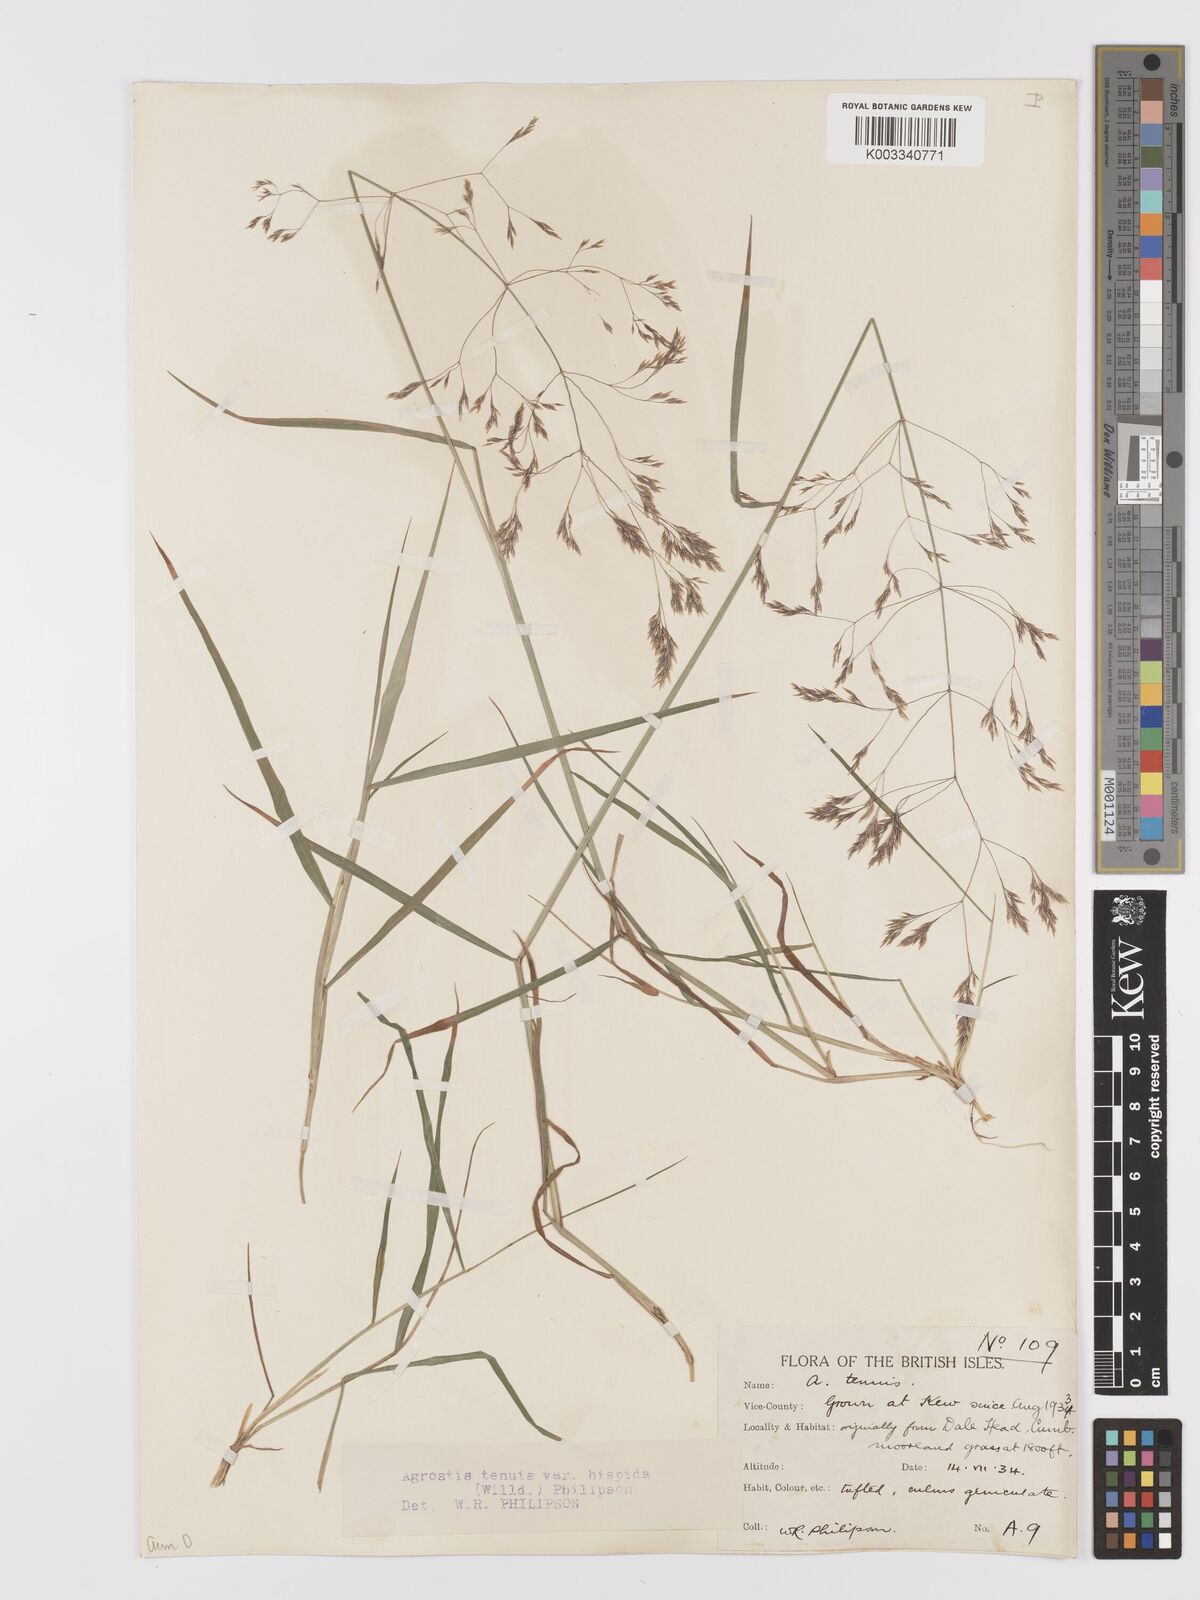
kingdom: Plantae
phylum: Tracheophyta
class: Liliopsida
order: Poales
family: Poaceae
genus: Agrostis
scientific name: Agrostis capillaris
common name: Colonial bentgrass
